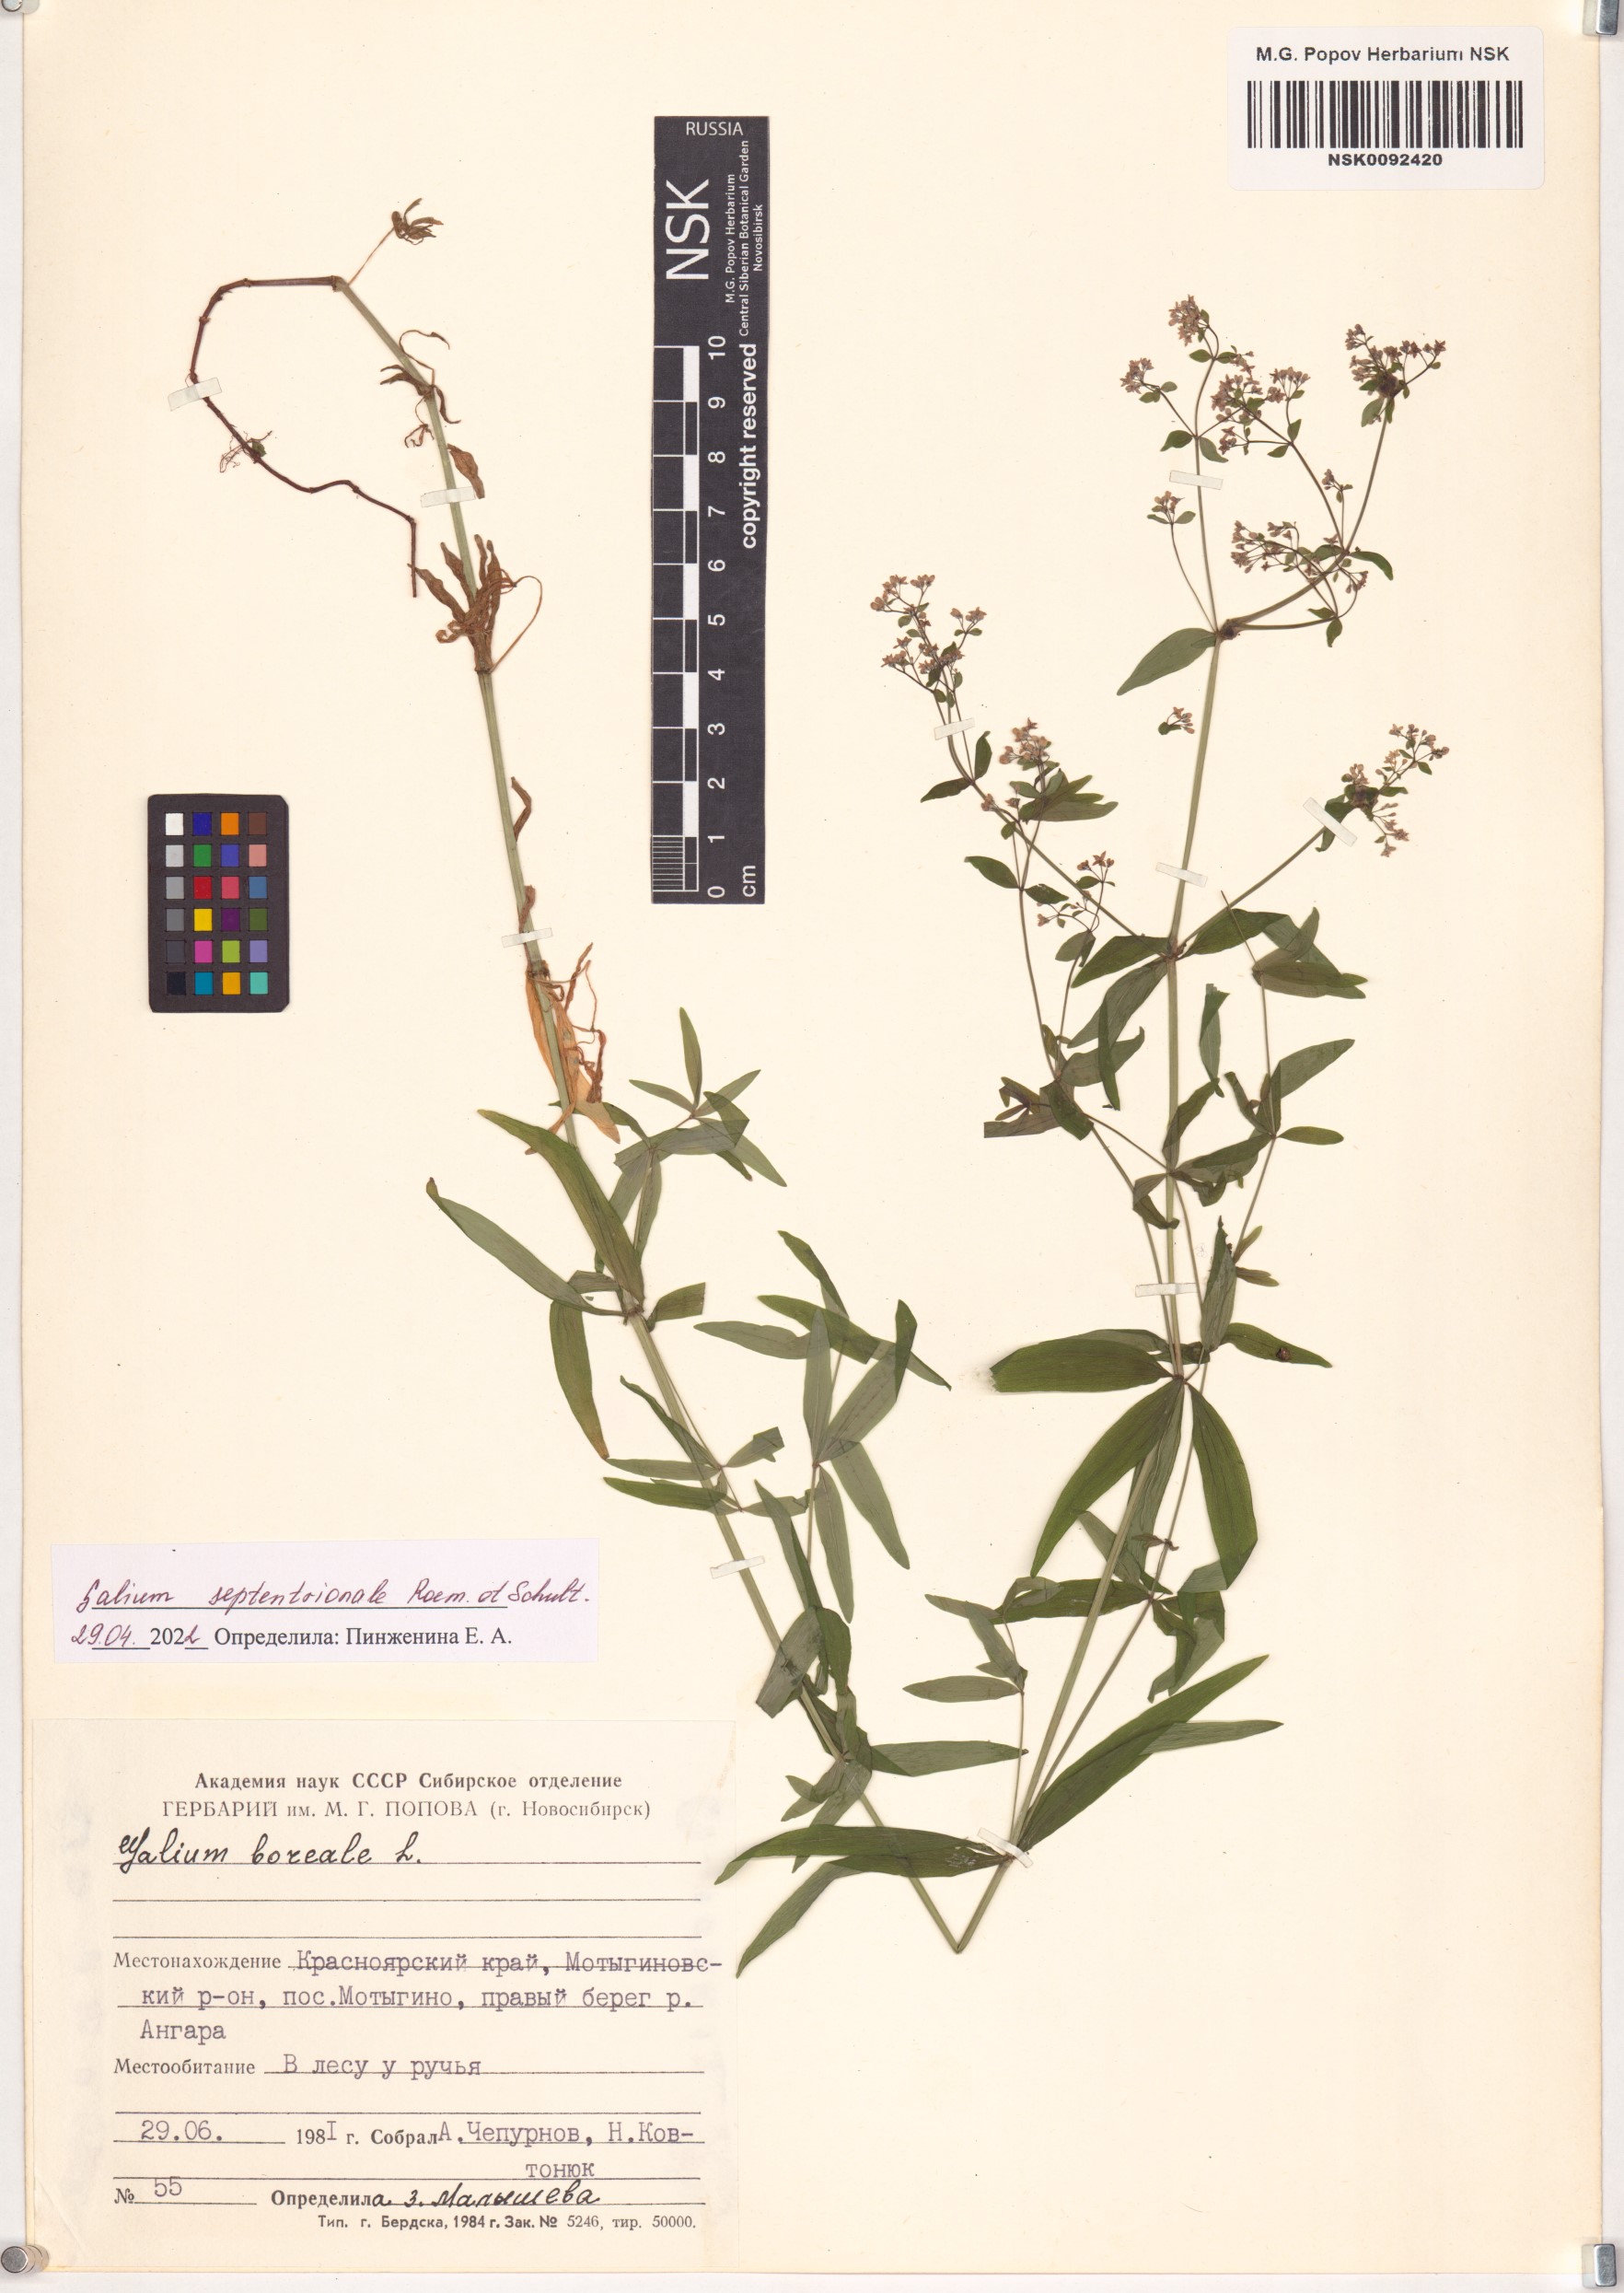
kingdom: Plantae
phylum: Tracheophyta
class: Magnoliopsida
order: Gentianales
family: Rubiaceae
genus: Galium
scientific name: Galium boreale
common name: Northern bedstraw
